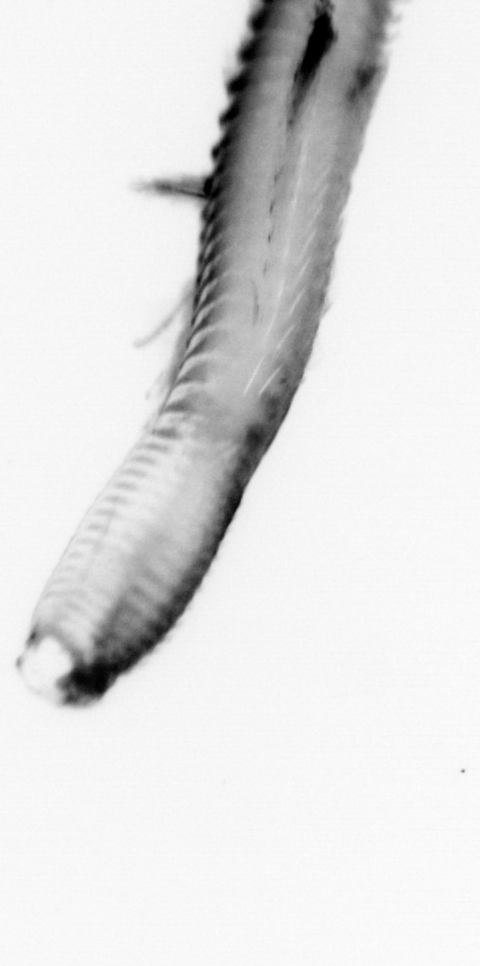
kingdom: Animalia
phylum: Annelida
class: Polychaeta
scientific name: Polychaeta
